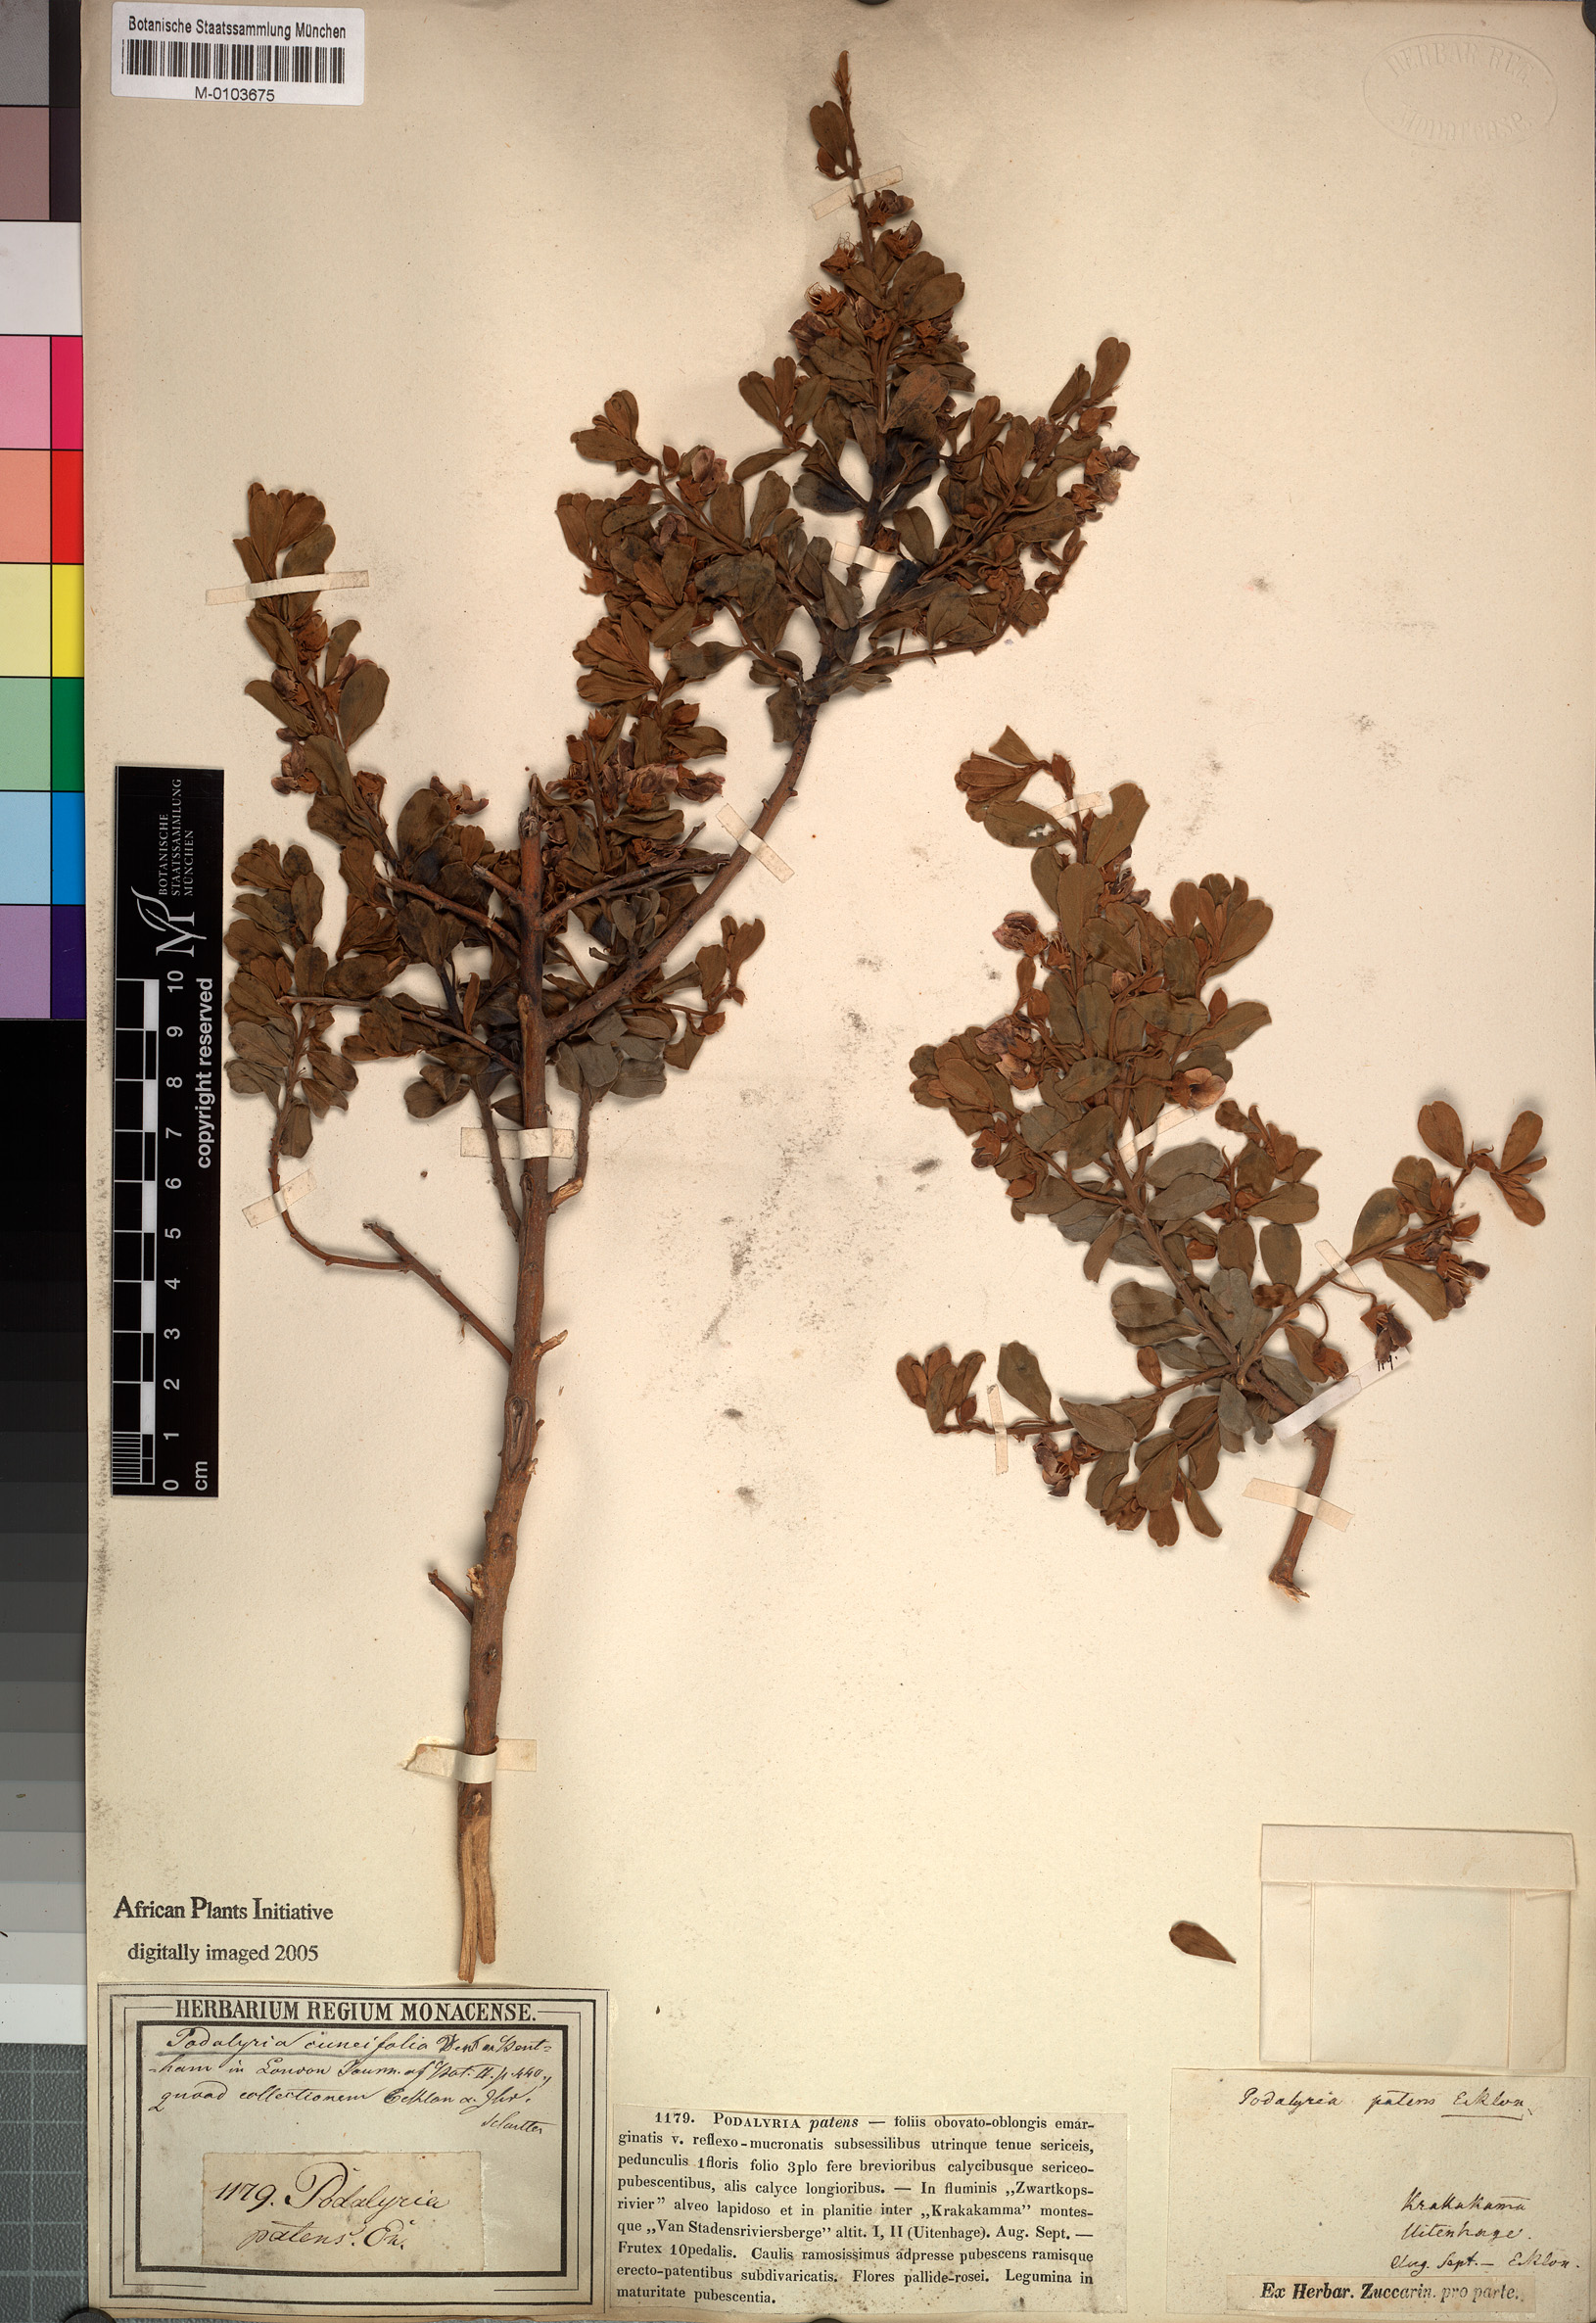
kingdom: Plantae
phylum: Tracheophyta
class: Magnoliopsida
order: Fabales
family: Fabaceae
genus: Podalyria
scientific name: Podalyria racemulosa
